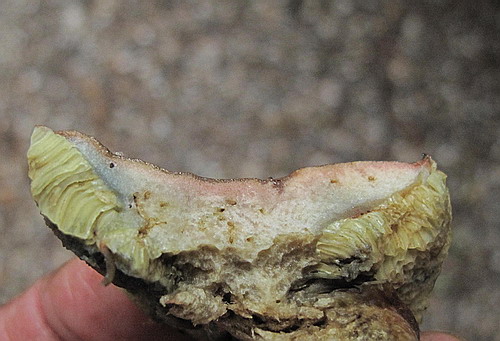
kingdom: Fungi
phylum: Basidiomycota
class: Agaricomycetes
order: Boletales
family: Boletaceae
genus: Hortiboletus
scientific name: Hortiboletus bubalinus
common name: aurora-rørhat
